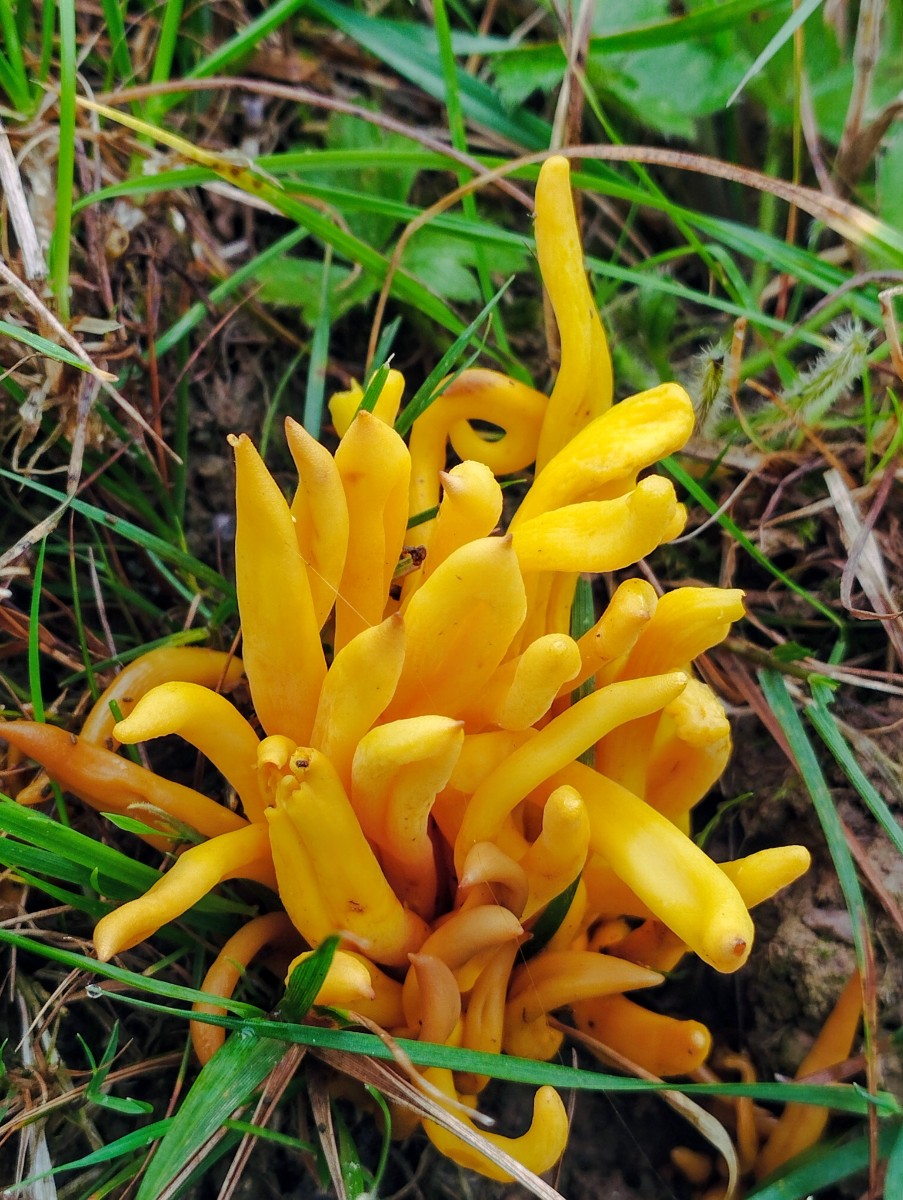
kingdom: Fungi
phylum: Basidiomycota
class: Agaricomycetes
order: Agaricales
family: Clavariaceae
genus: Clavulinopsis
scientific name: Clavulinopsis fusiformis
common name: tenformet køllesvamp
